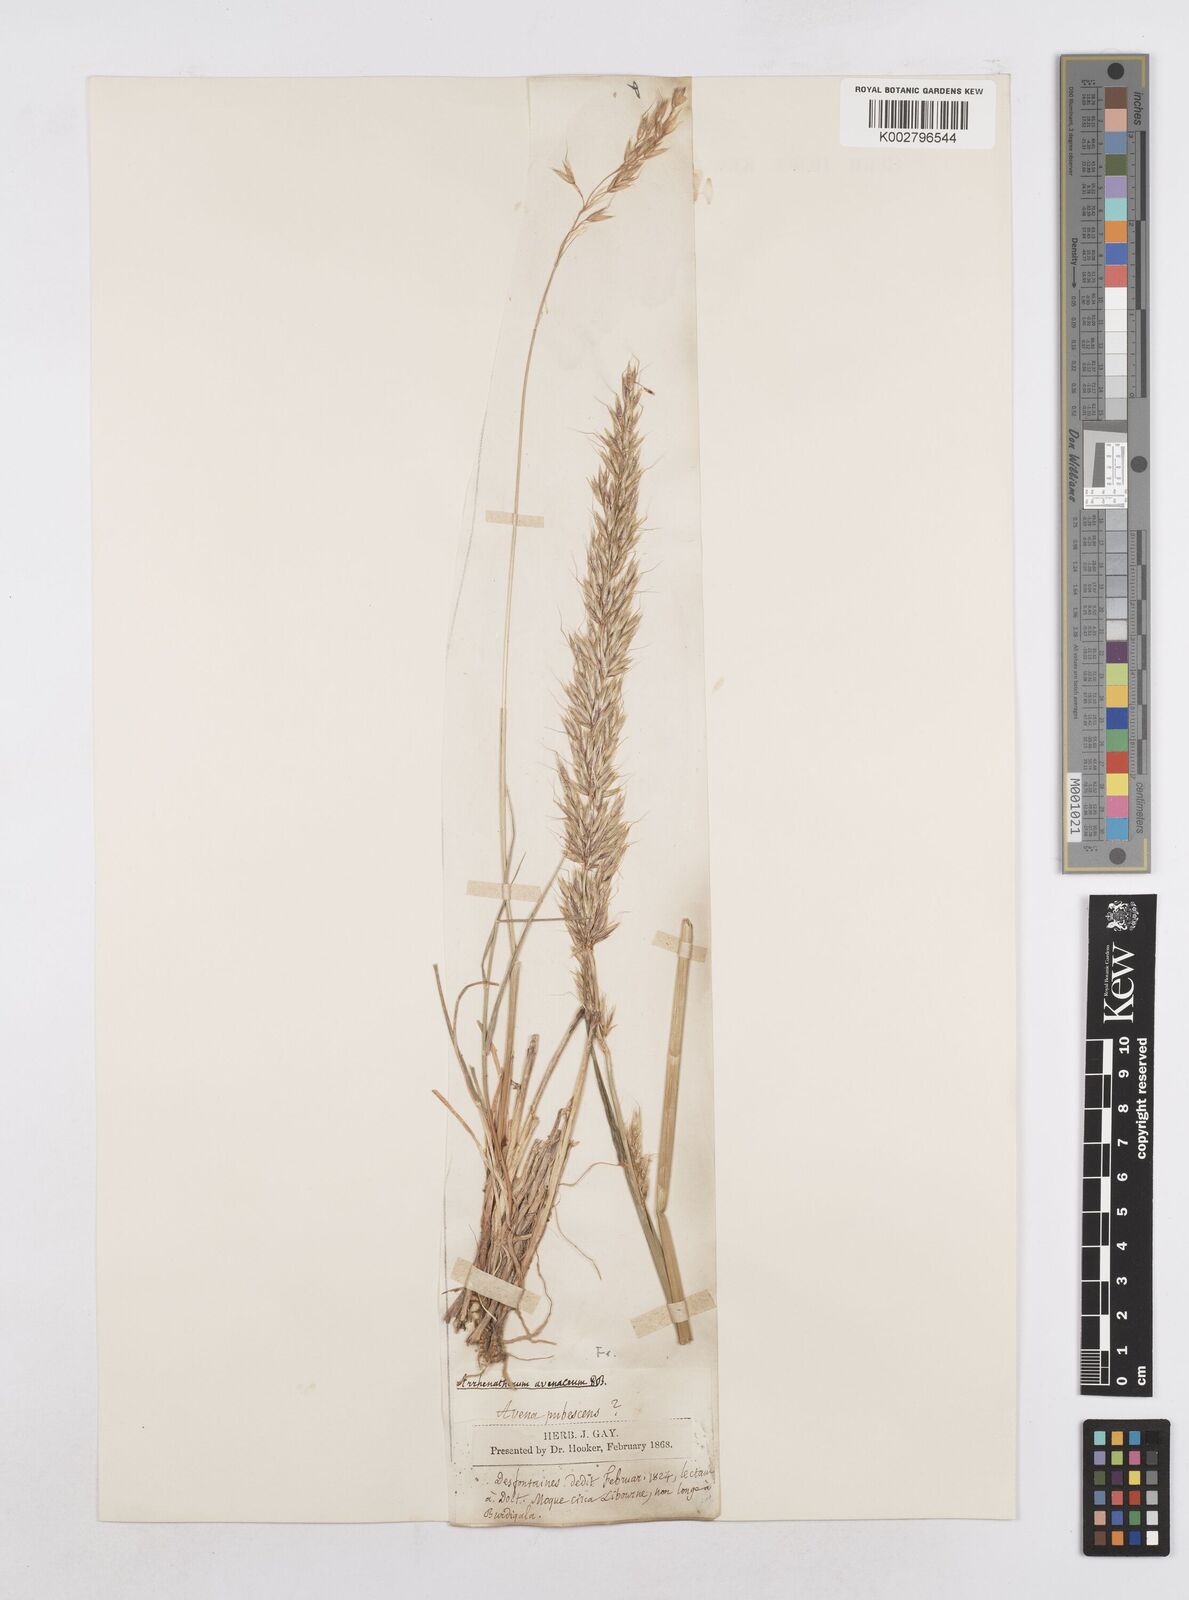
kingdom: Plantae
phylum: Tracheophyta
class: Liliopsida
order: Poales
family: Poaceae
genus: Arrhenatherum
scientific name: Arrhenatherum elatius
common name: Tall oatgrass
